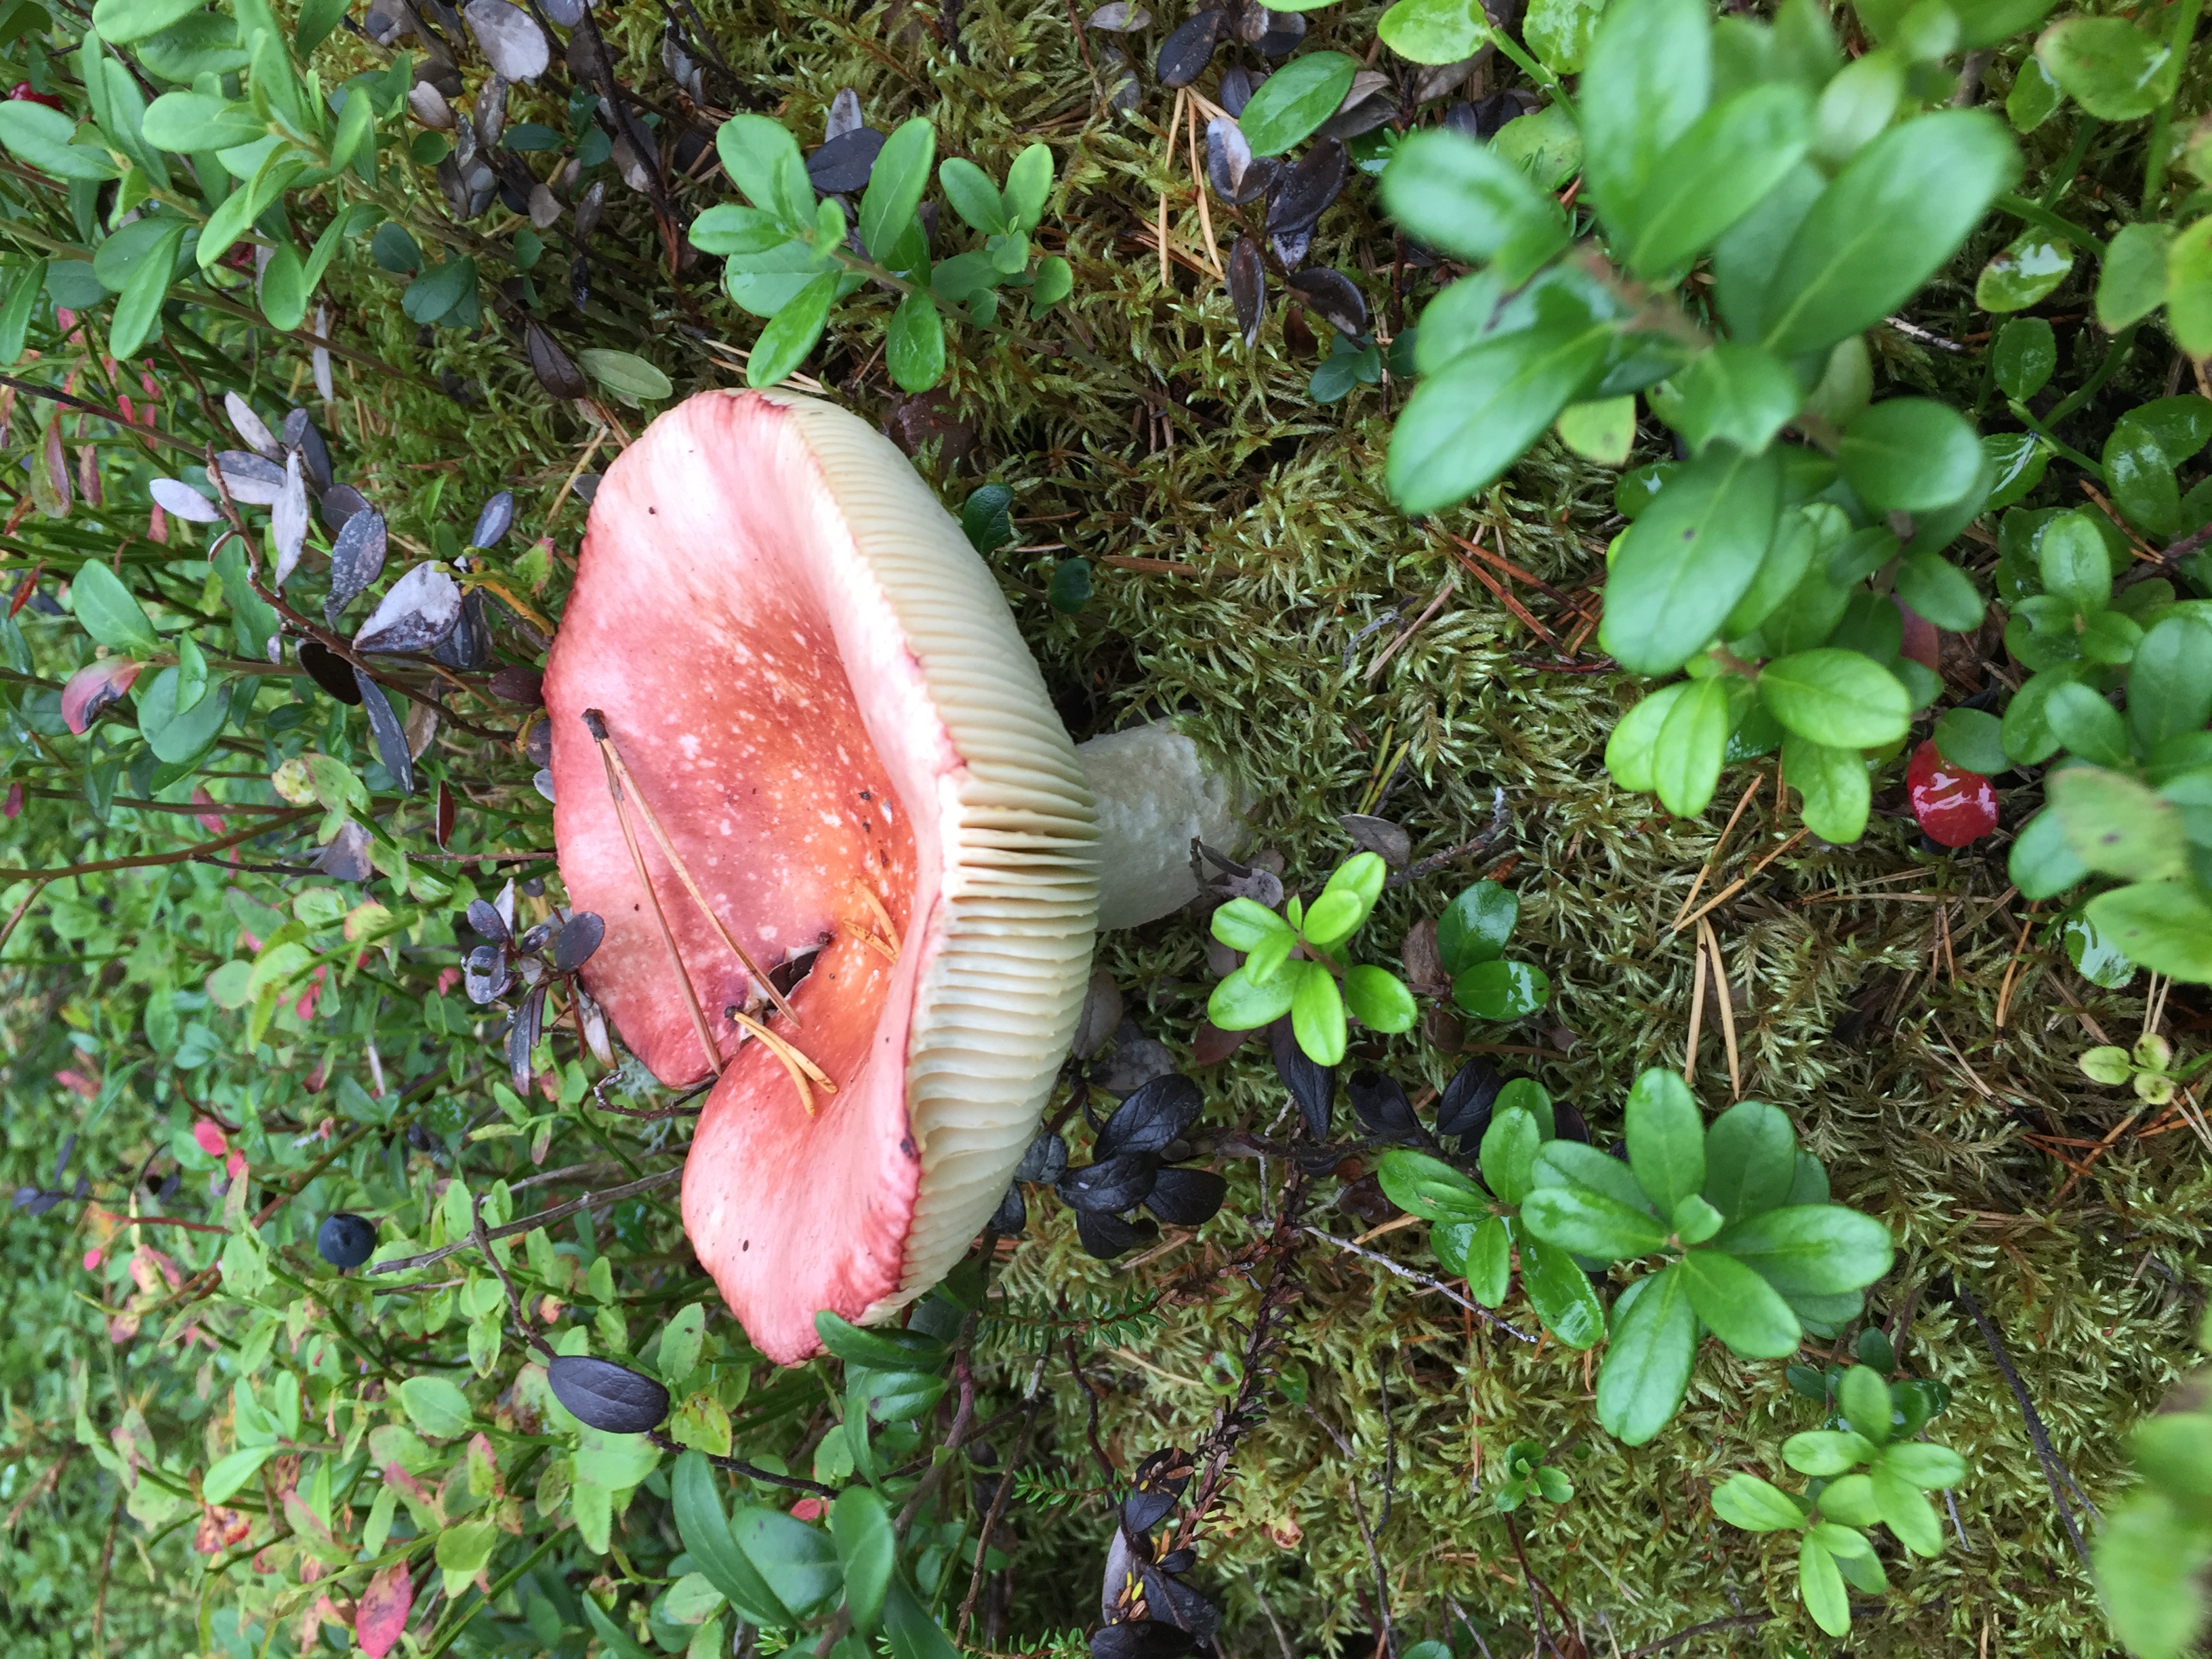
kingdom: Fungi
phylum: Basidiomycota
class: Agaricomycetes
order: Russulales
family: Russulaceae
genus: Russula
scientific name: Russula paludosa
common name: Hintapink
